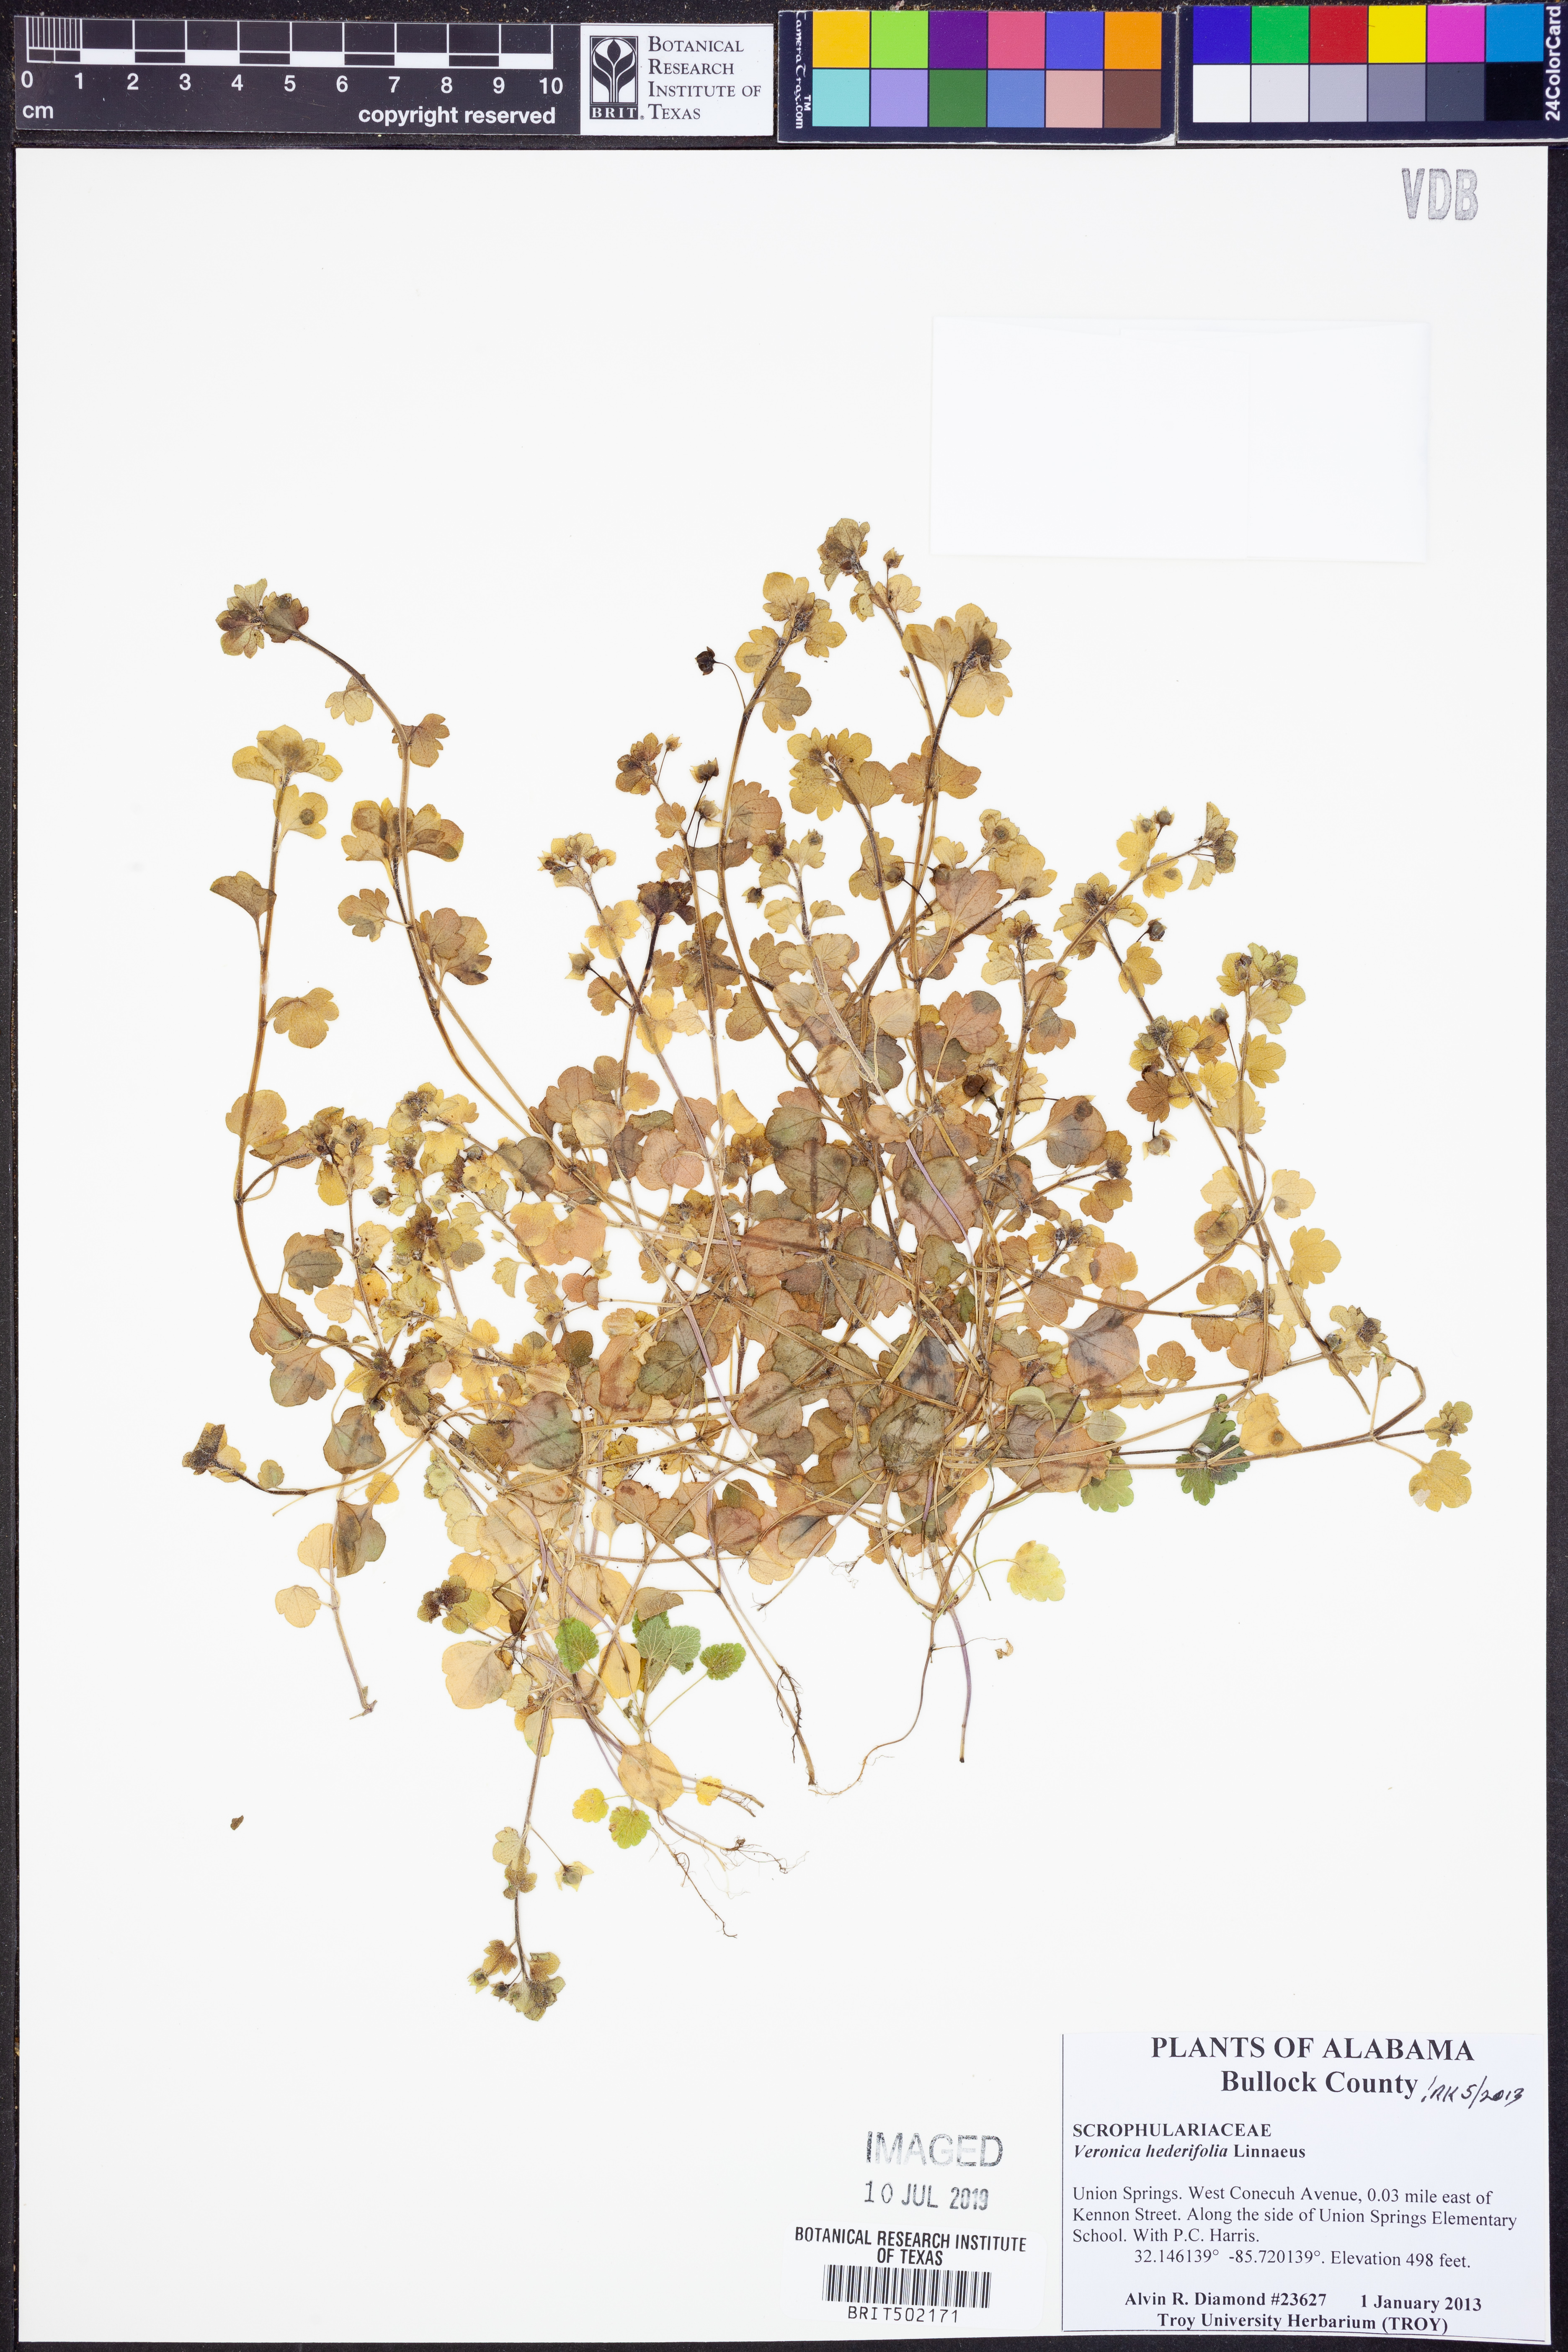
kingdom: Plantae
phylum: Tracheophyta
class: Magnoliopsida
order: Lamiales
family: Plantaginaceae
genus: Veronica
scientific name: Veronica hederifolia
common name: Ivy-leaved speedwell
